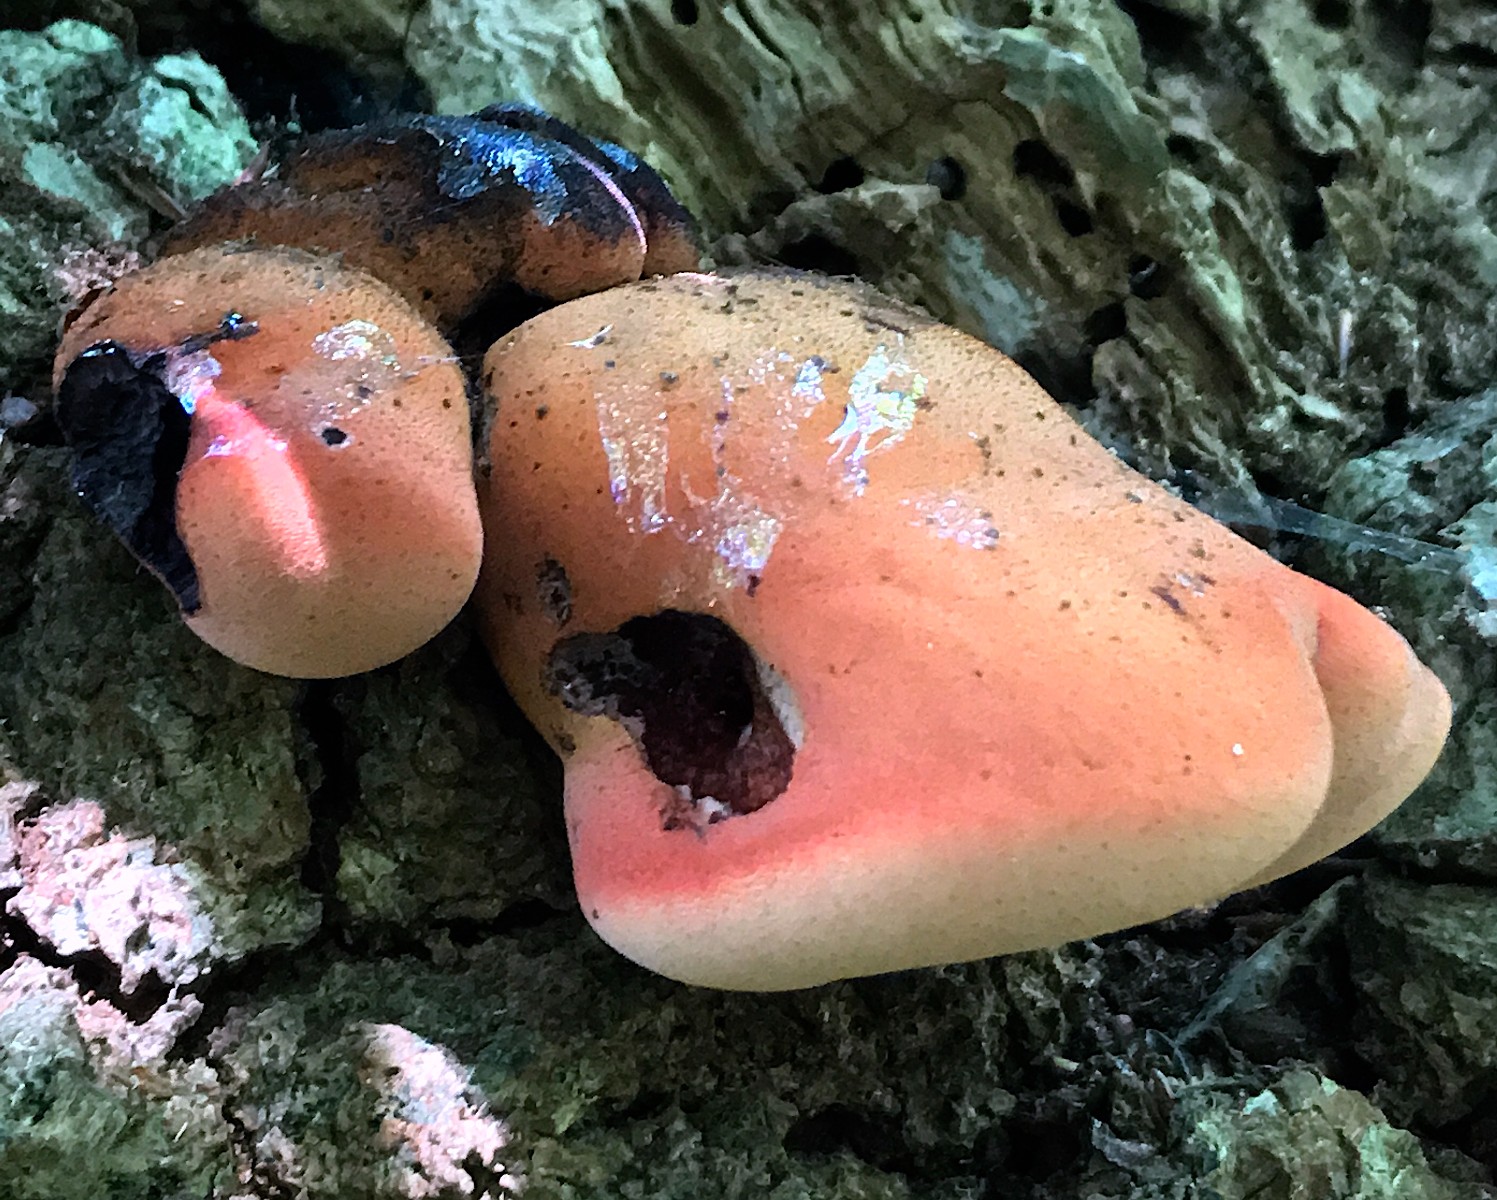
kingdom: Fungi
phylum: Basidiomycota
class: Agaricomycetes
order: Agaricales
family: Fistulinaceae
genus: Fistulina
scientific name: Fistulina hepatica
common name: oksetunge
